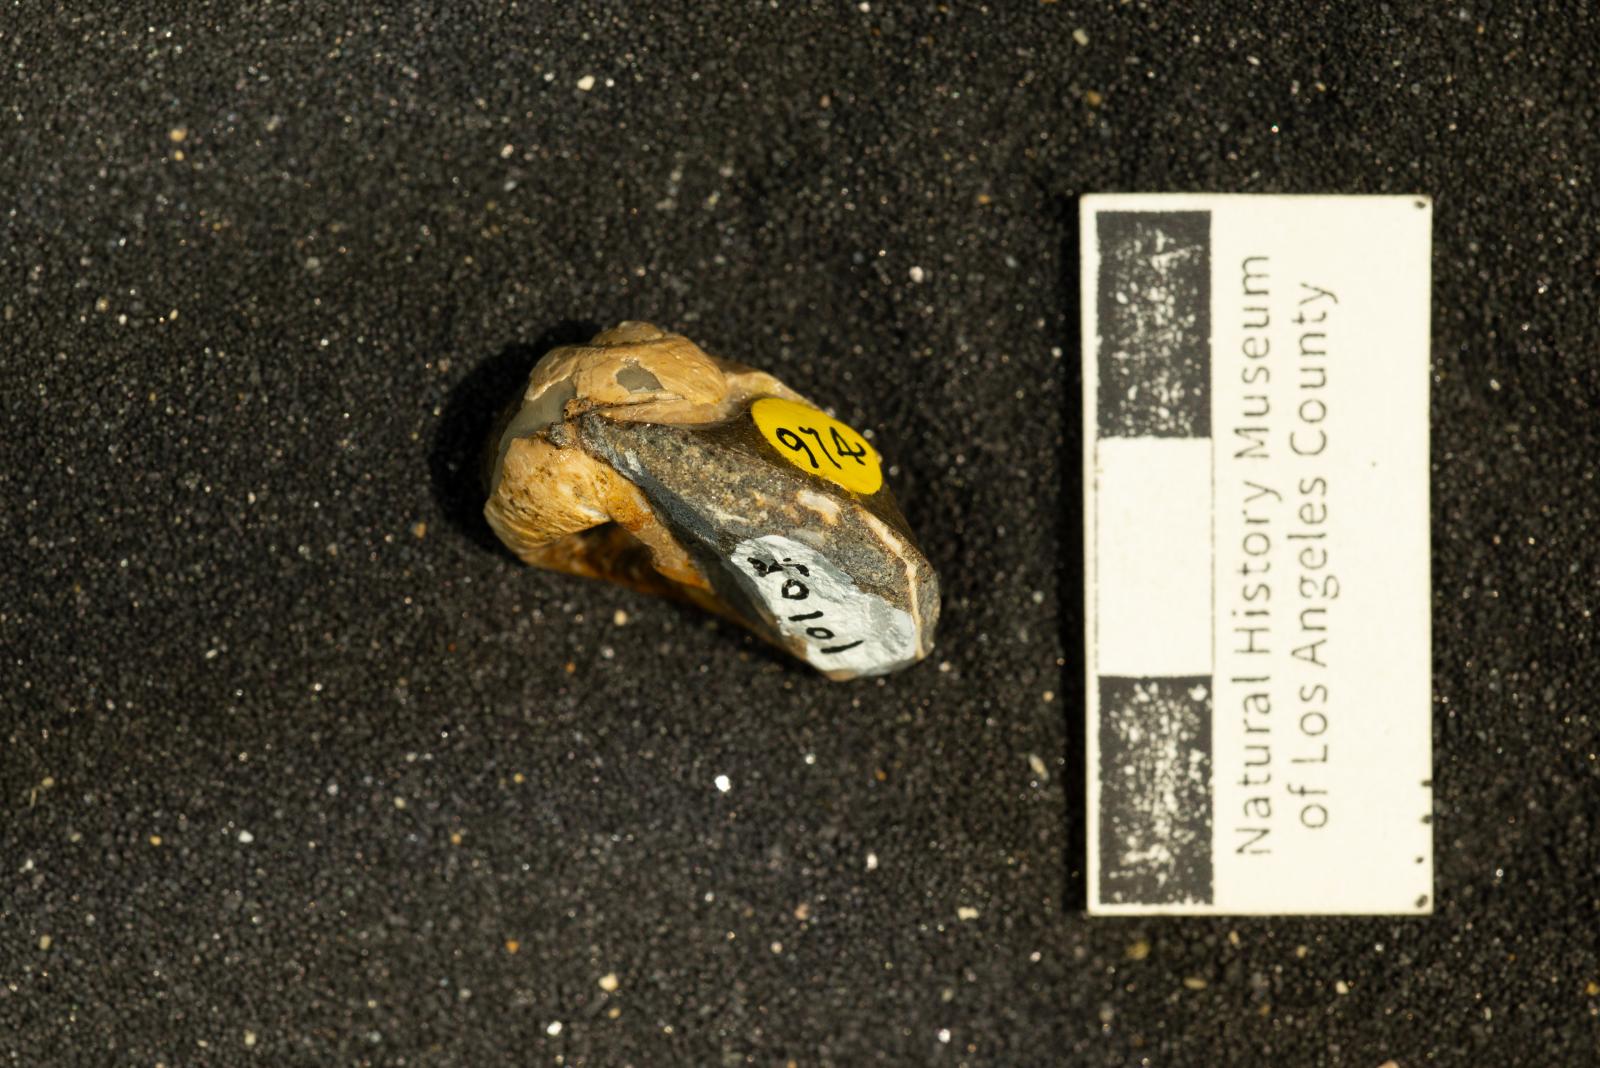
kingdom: Animalia
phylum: Mollusca
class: Gastropoda
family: Gyrodidae
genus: Gyrodes
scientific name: Gyrodes pacificus
